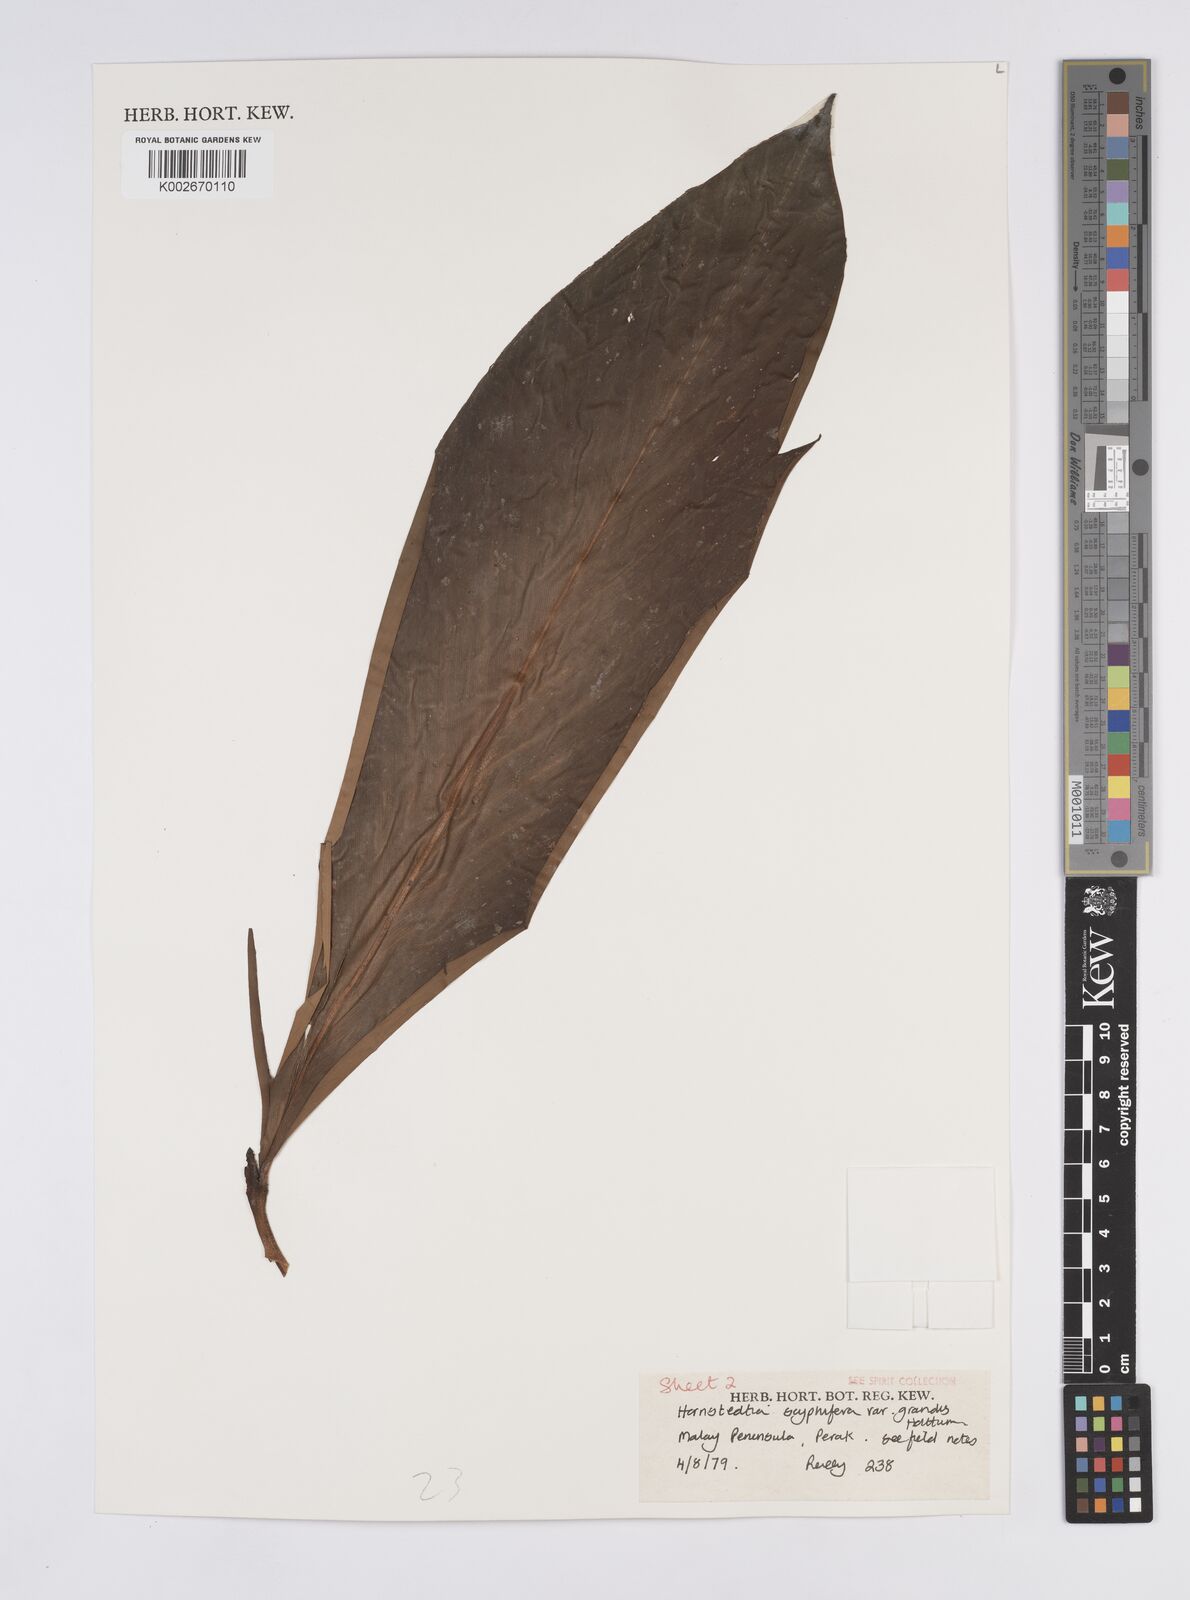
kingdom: Plantae
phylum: Tracheophyta
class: Liliopsida
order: Zingiberales
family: Zingiberaceae
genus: Hornstedtia
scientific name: Hornstedtia scyphifera
